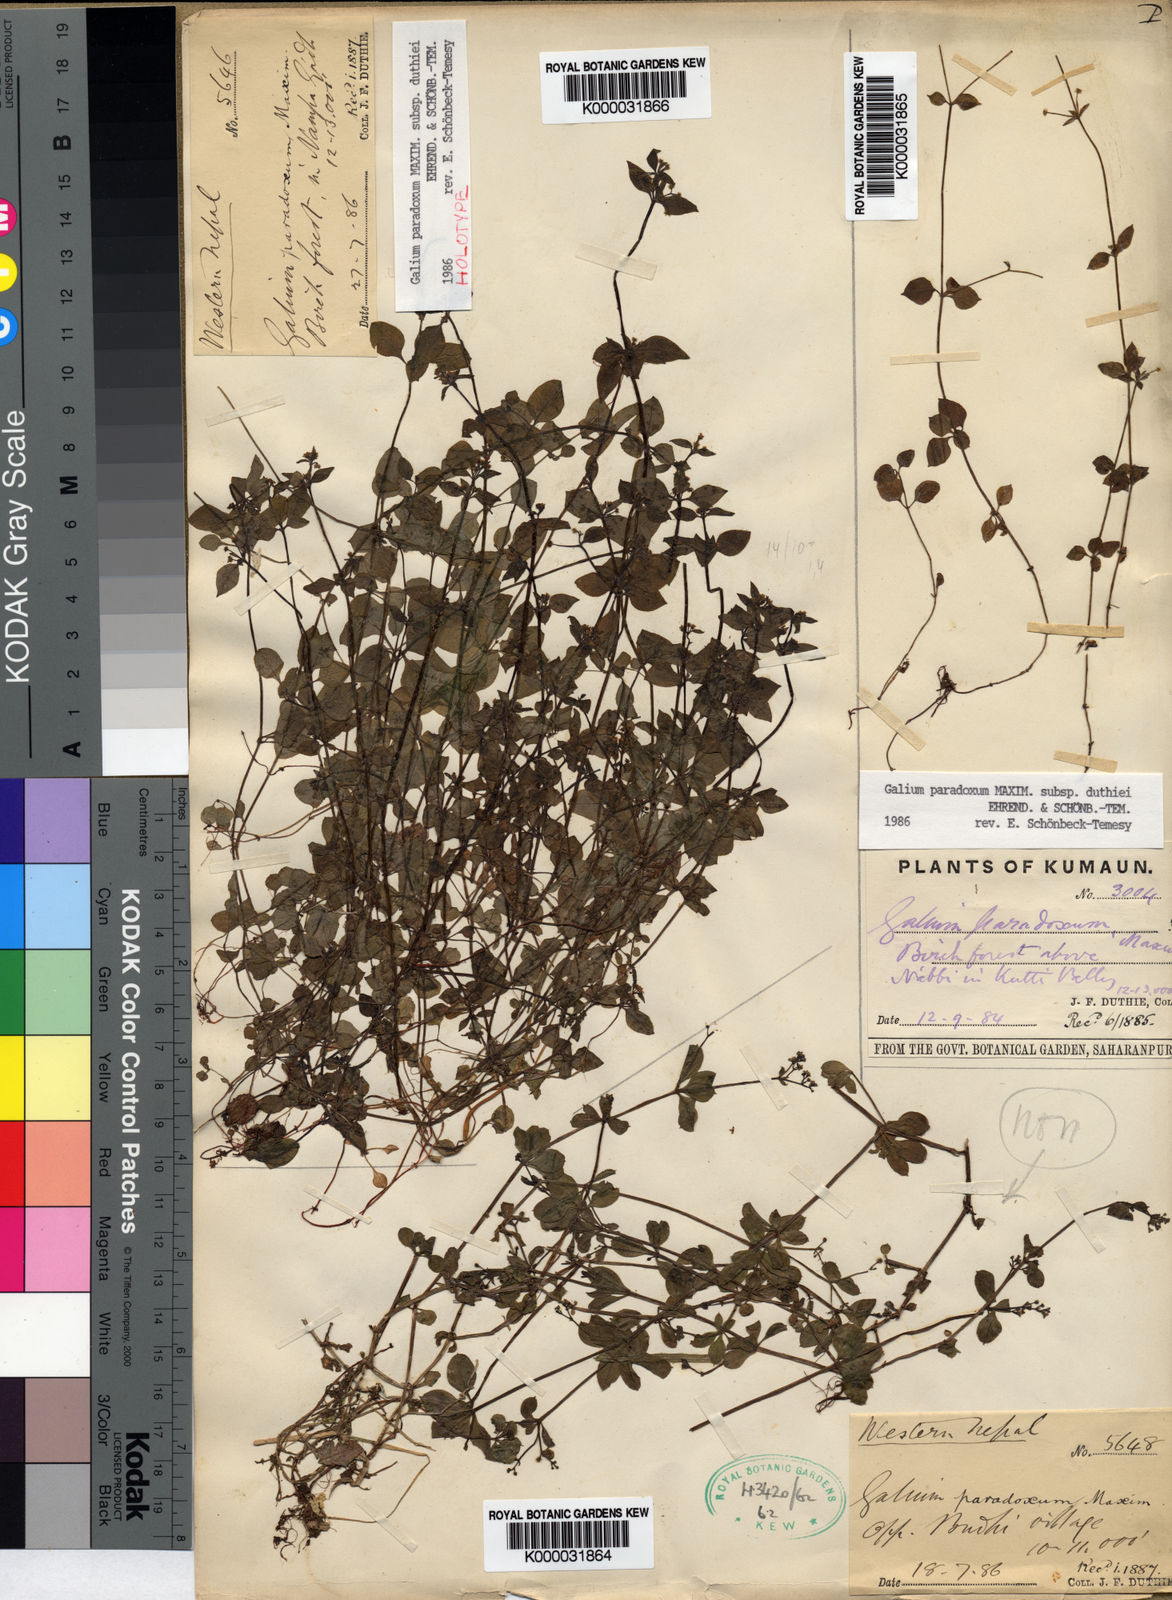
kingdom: Plantae
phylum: Tracheophyta
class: Magnoliopsida
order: Gentianales
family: Rubiaceae
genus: Pseudogalium
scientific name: Pseudogalium paradoxum
